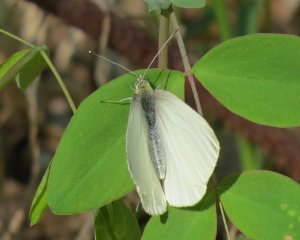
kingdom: Animalia
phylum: Arthropoda
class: Insecta
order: Lepidoptera
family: Pieridae
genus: Pieris
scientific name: Pieris oleracea
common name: Mustard White
